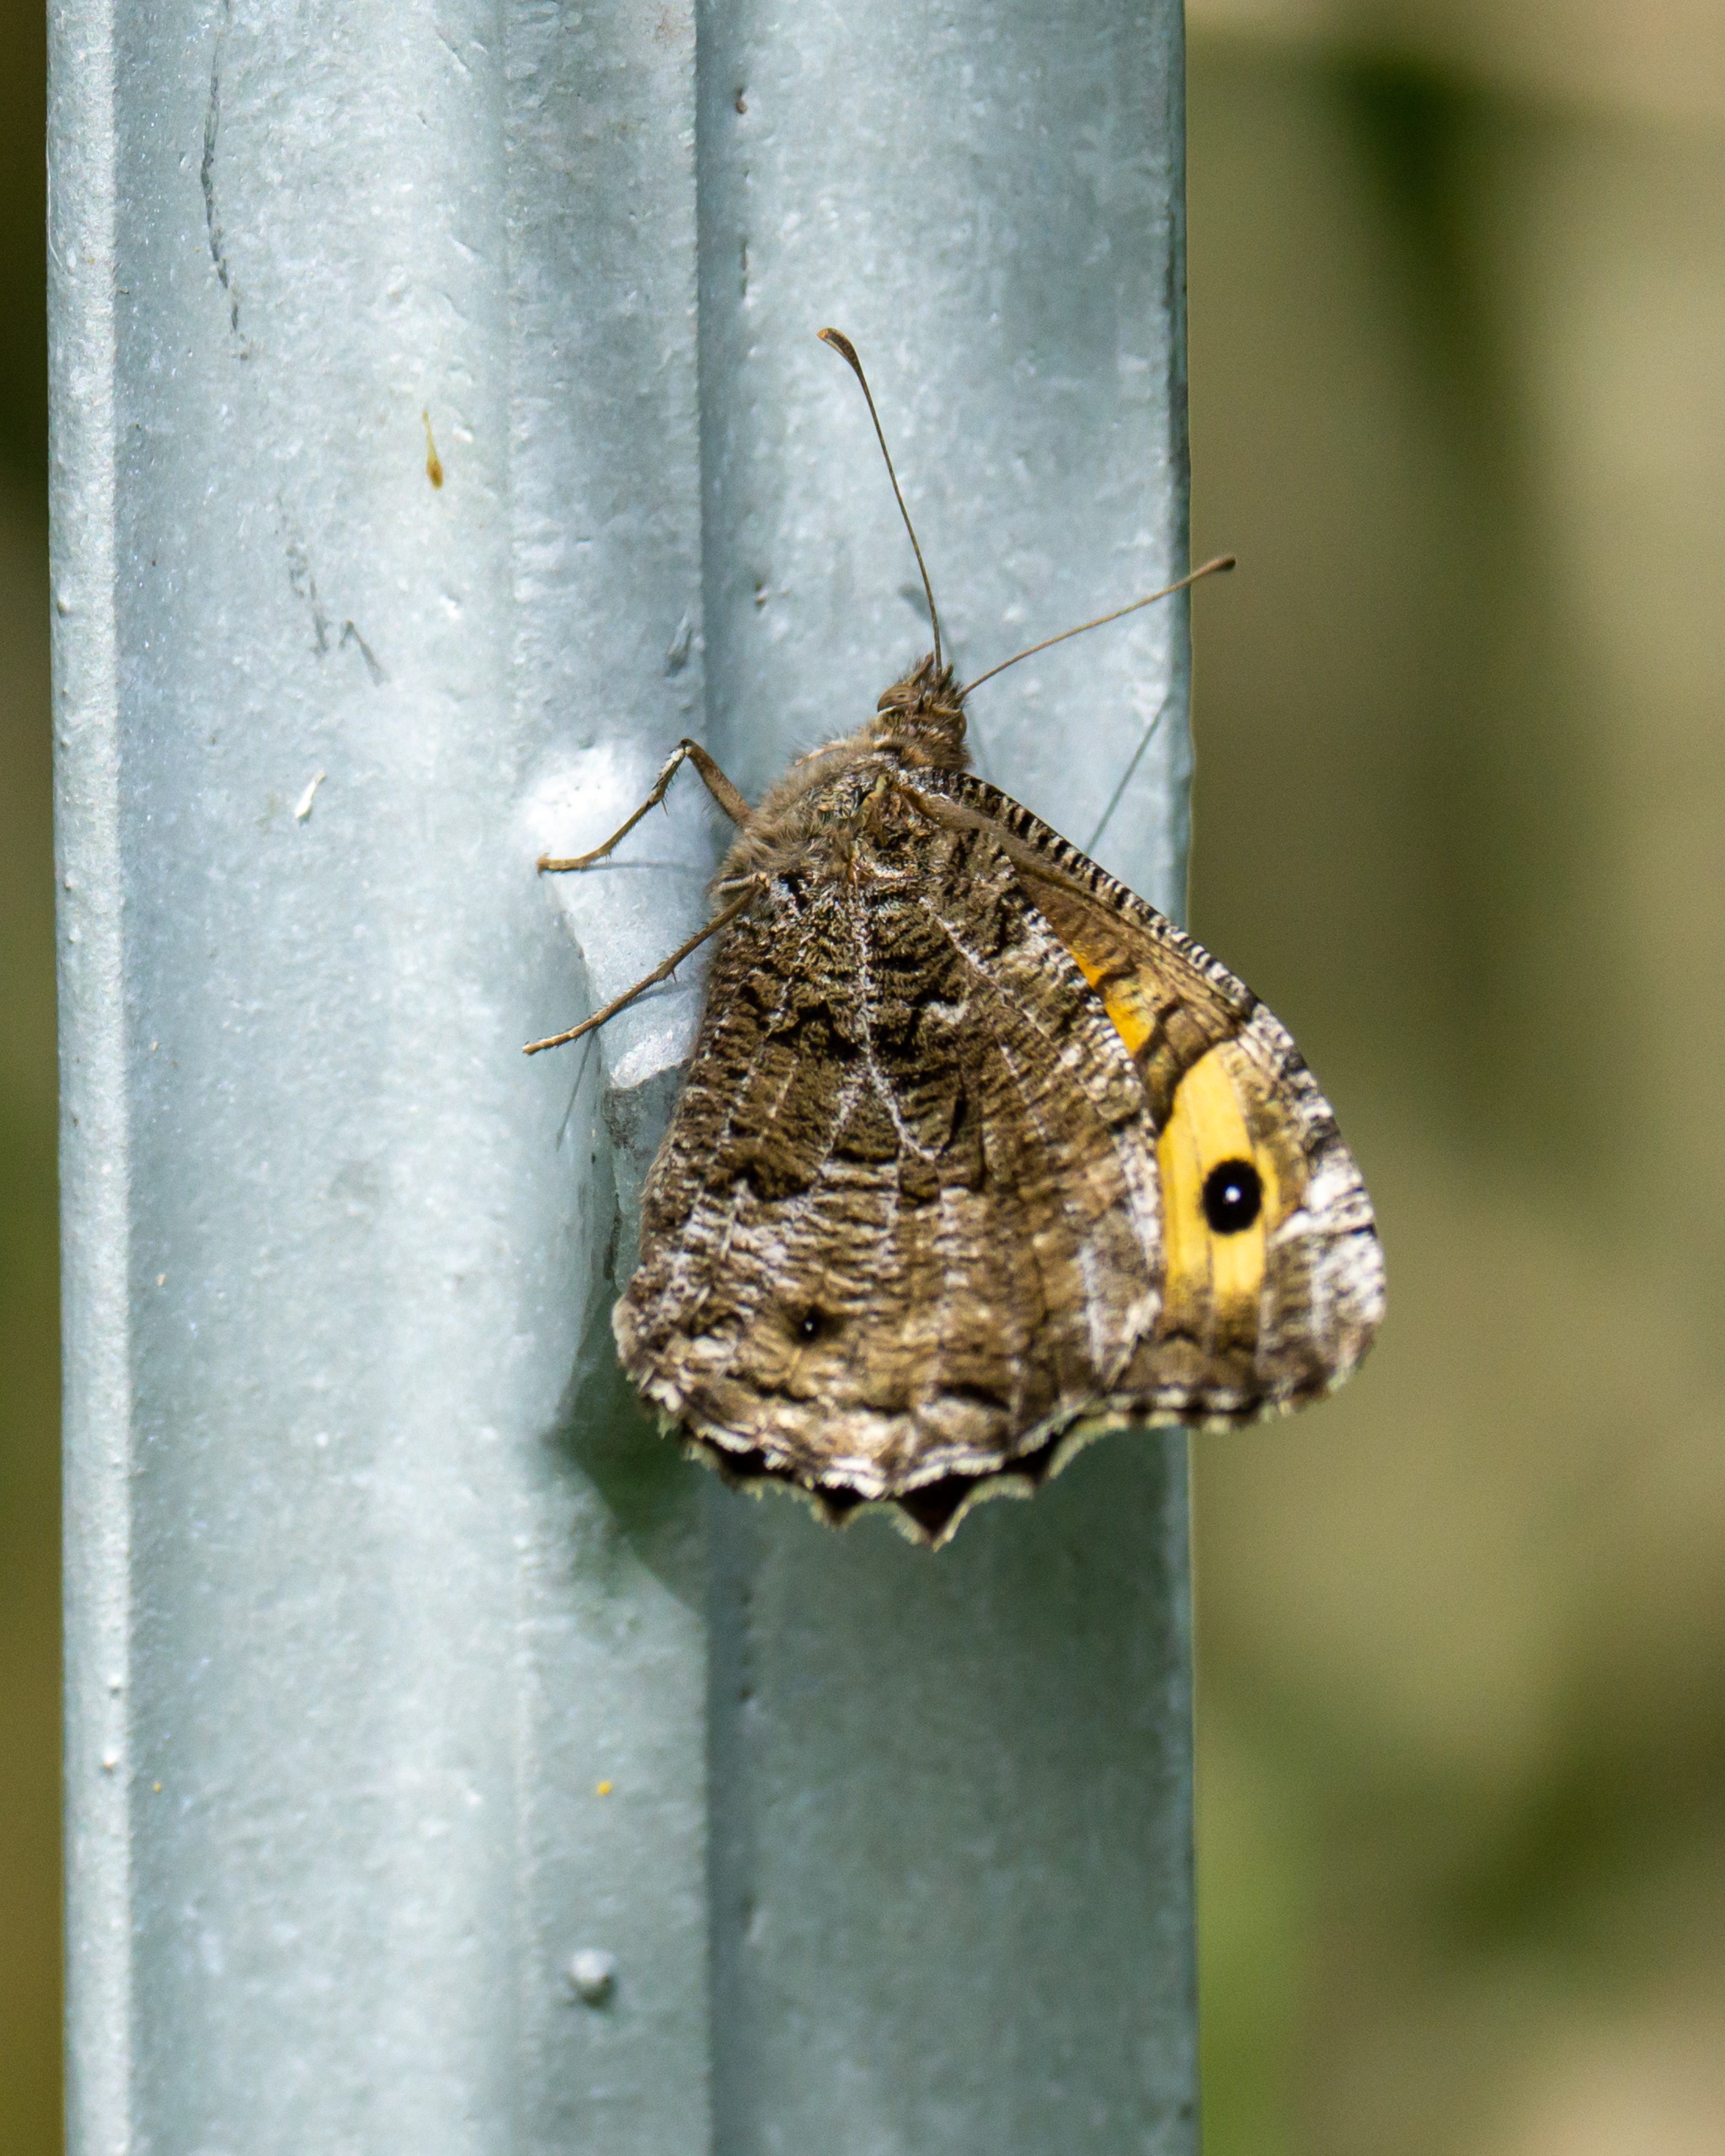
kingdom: Animalia
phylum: Arthropoda
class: Insecta
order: Lepidoptera
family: Nymphalidae
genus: Hipparchia
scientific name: Hipparchia semele
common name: Sandrandøje
